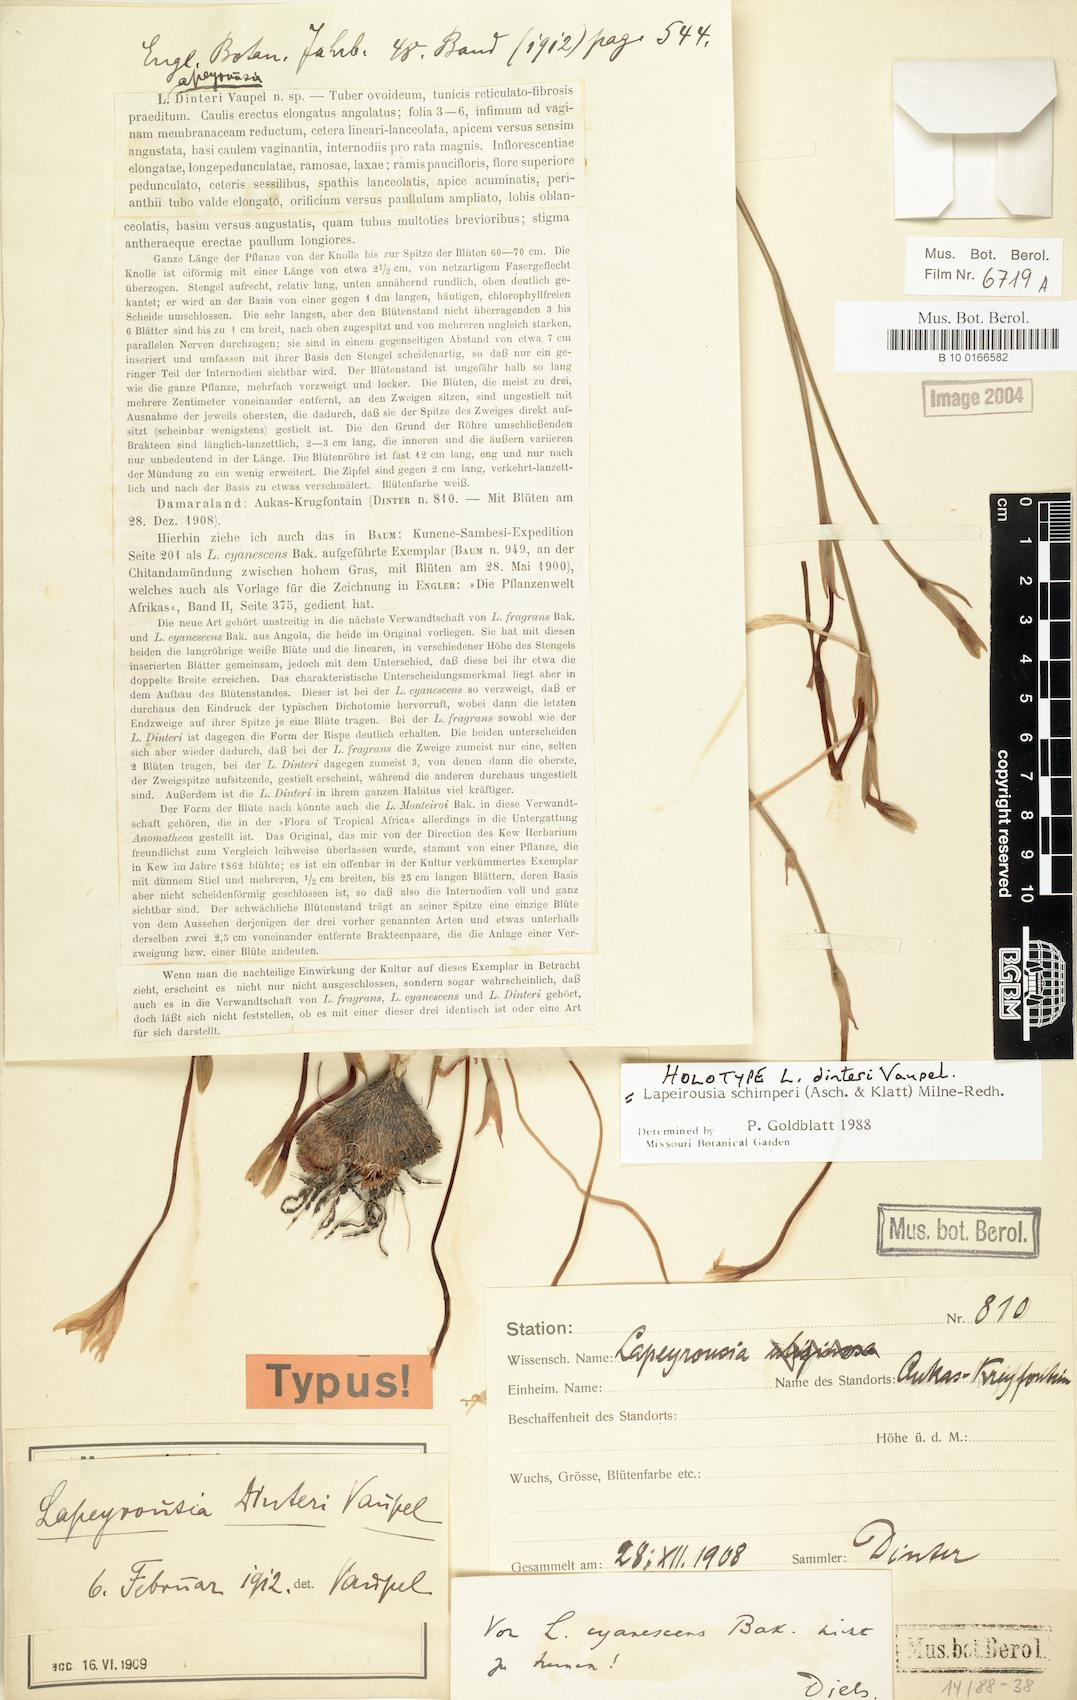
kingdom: Plantae
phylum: Tracheophyta
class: Liliopsida
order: Asparagales
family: Iridaceae
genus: Afrosolen
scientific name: Afrosolen schimperi
